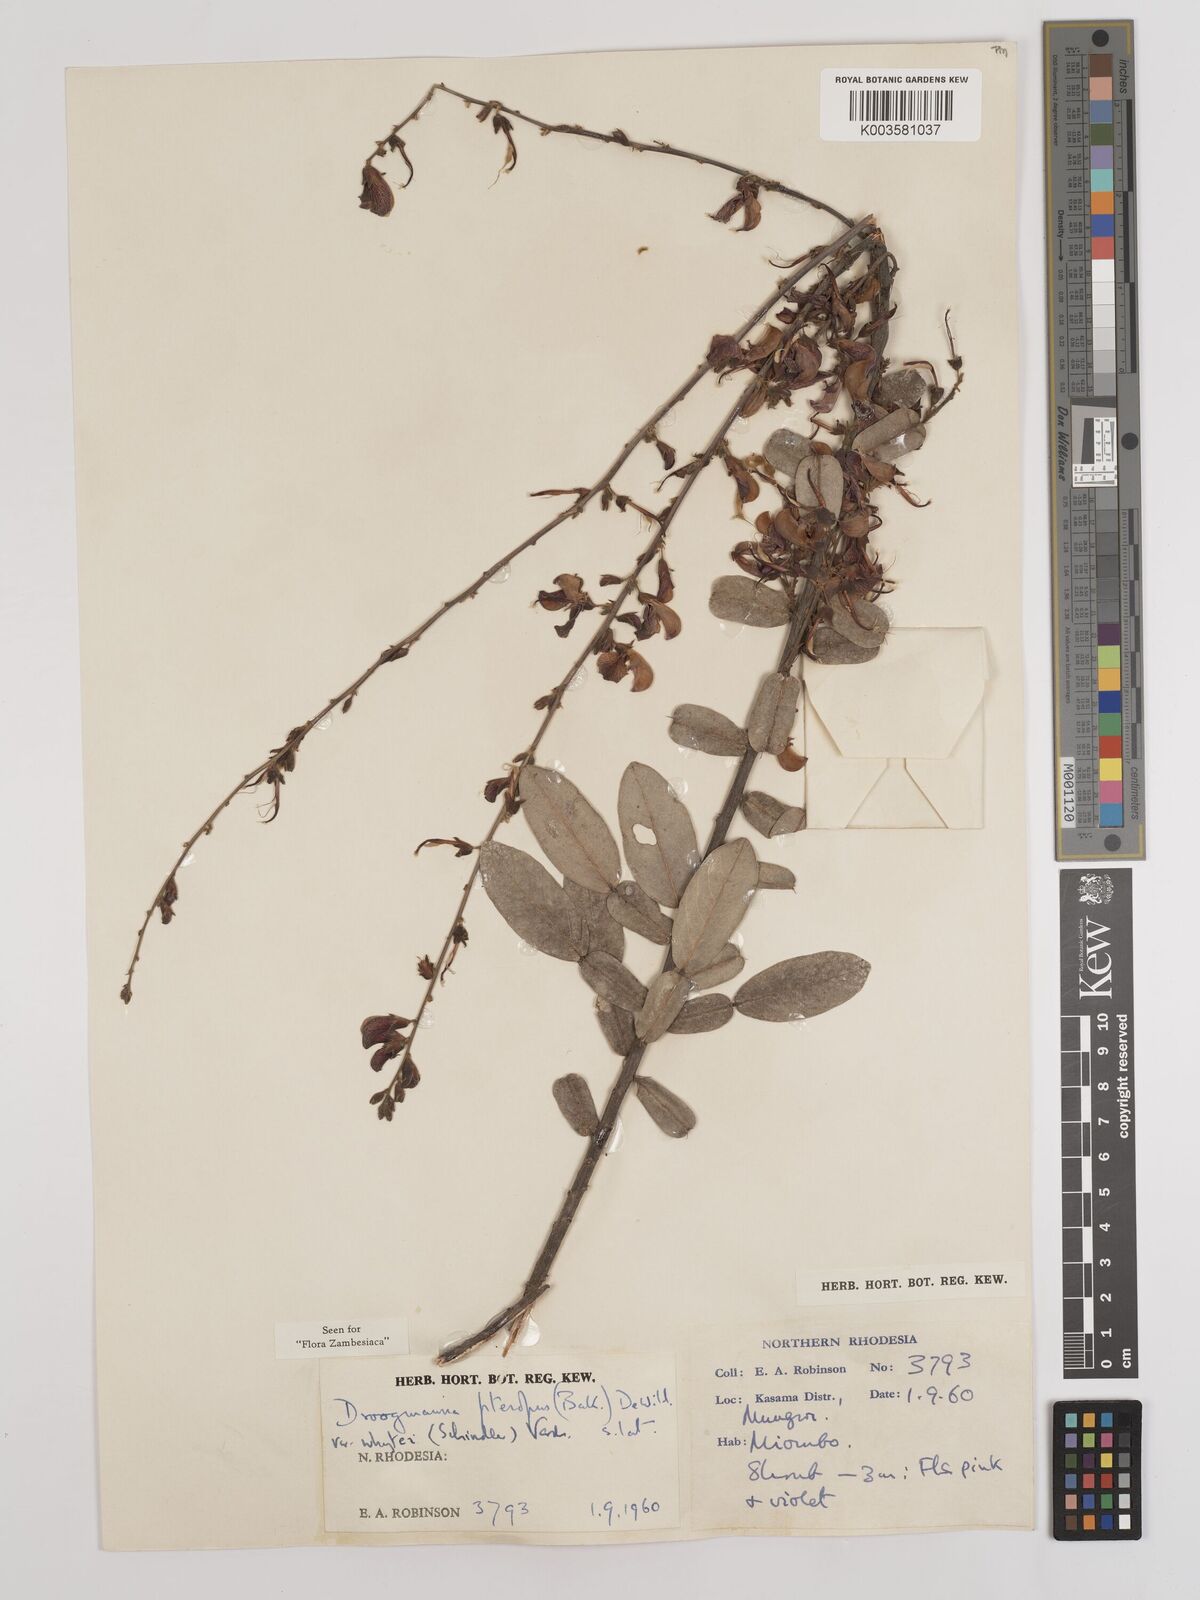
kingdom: Plantae
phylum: Tracheophyta
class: Magnoliopsida
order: Fabales
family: Fabaceae
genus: Droogmansia
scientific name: Droogmansia pteropus
